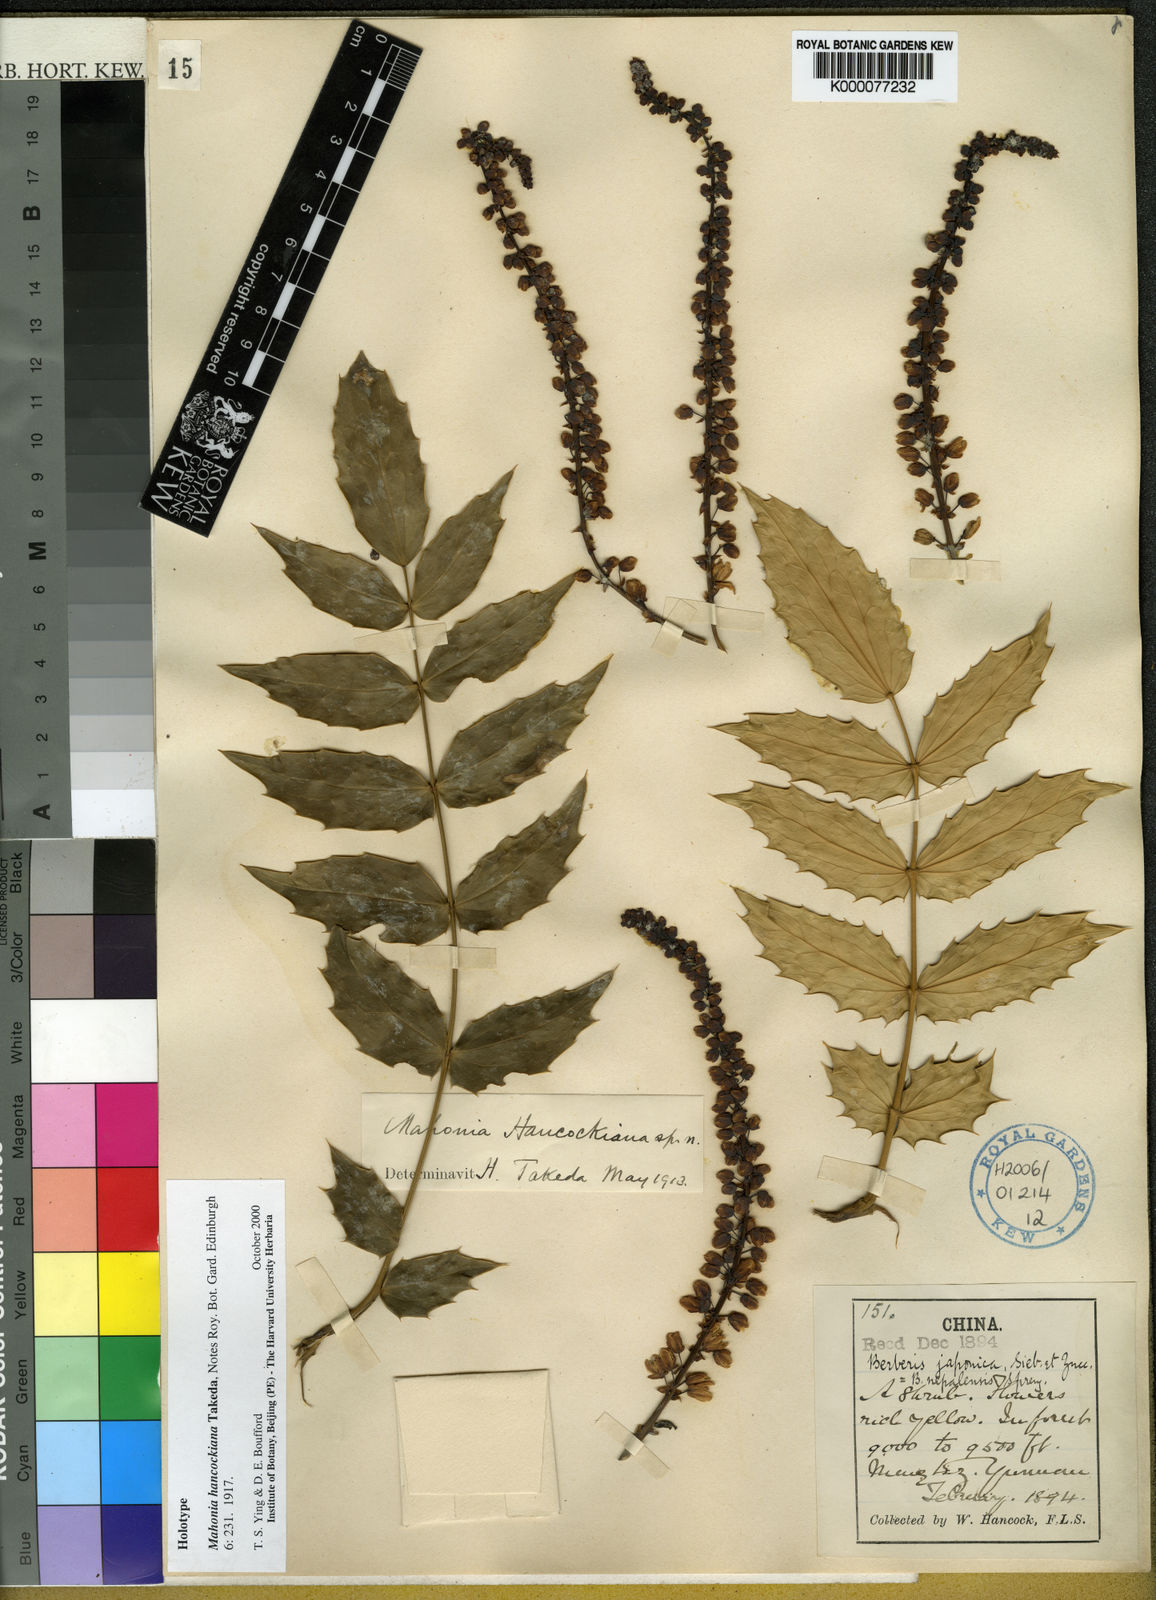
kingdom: Plantae
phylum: Tracheophyta
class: Magnoliopsida
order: Ranunculales
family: Berberidaceae
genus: Mahonia
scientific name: Mahonia hancockiana
